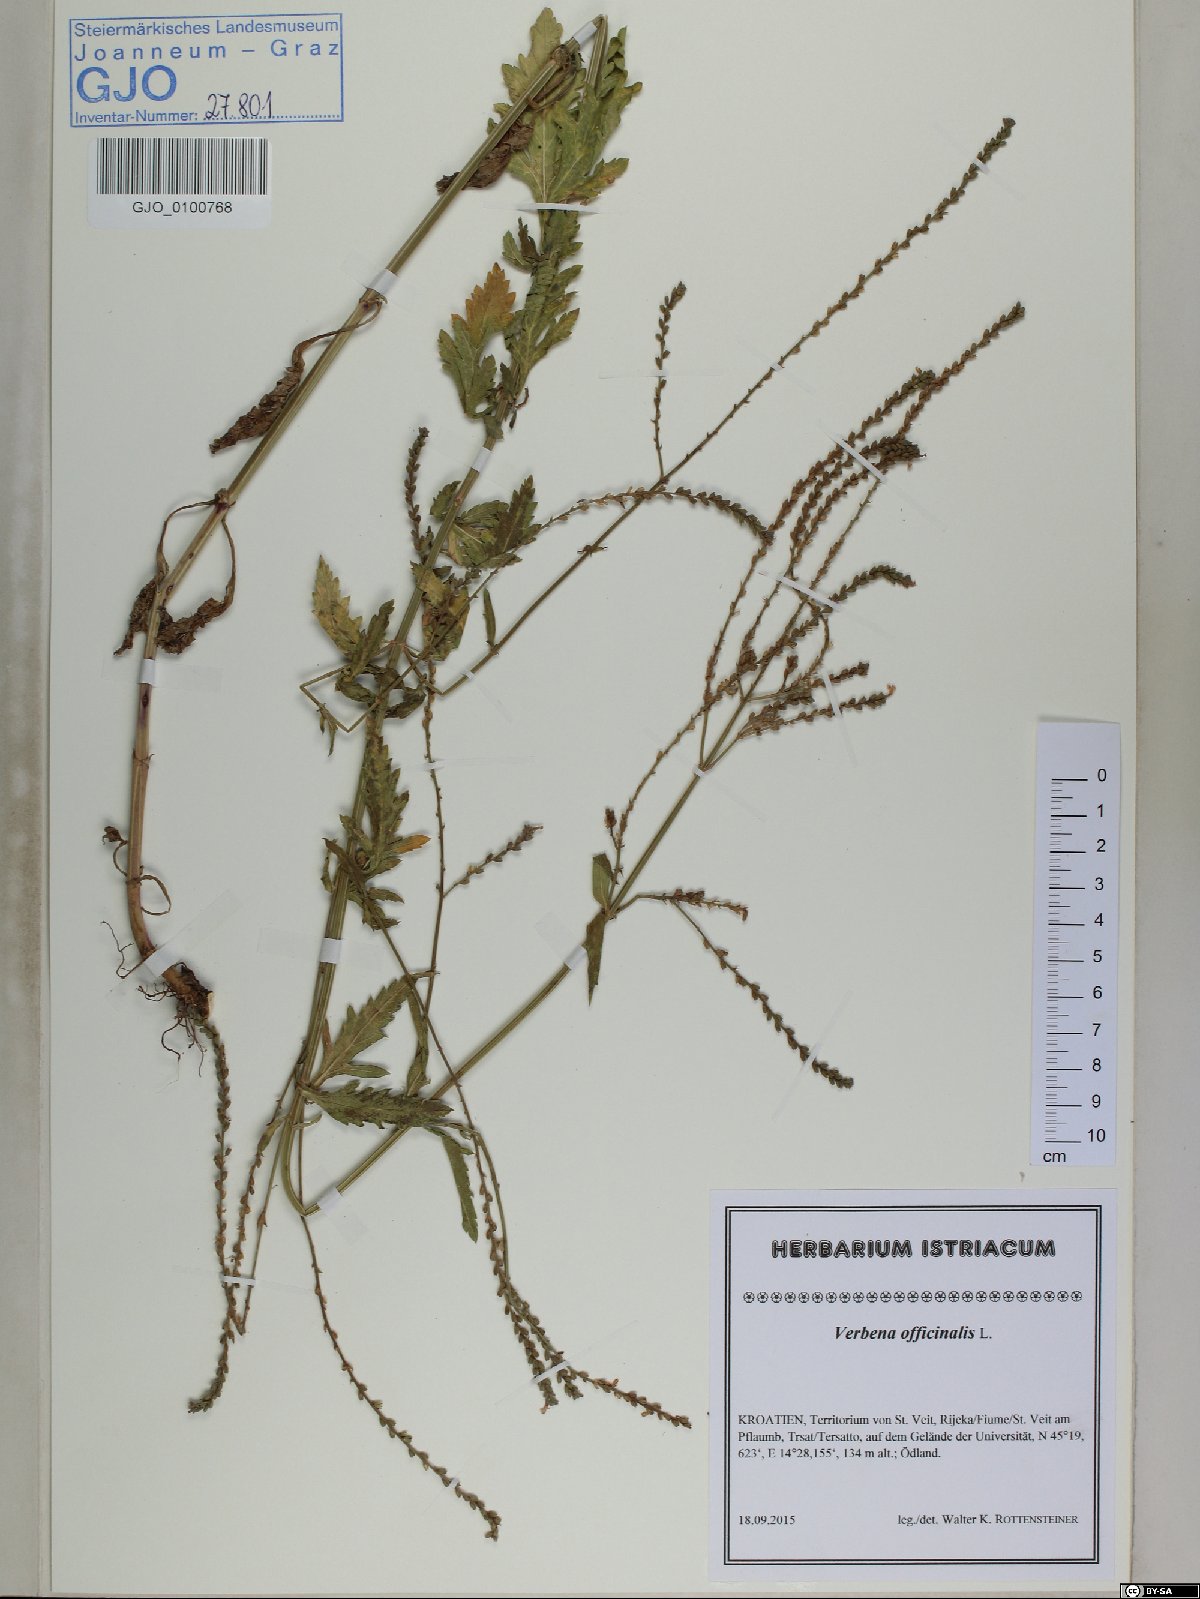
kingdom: Plantae
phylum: Tracheophyta
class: Magnoliopsida
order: Lamiales
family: Verbenaceae
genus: Verbena
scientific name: Verbena officinalis
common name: Vervain
